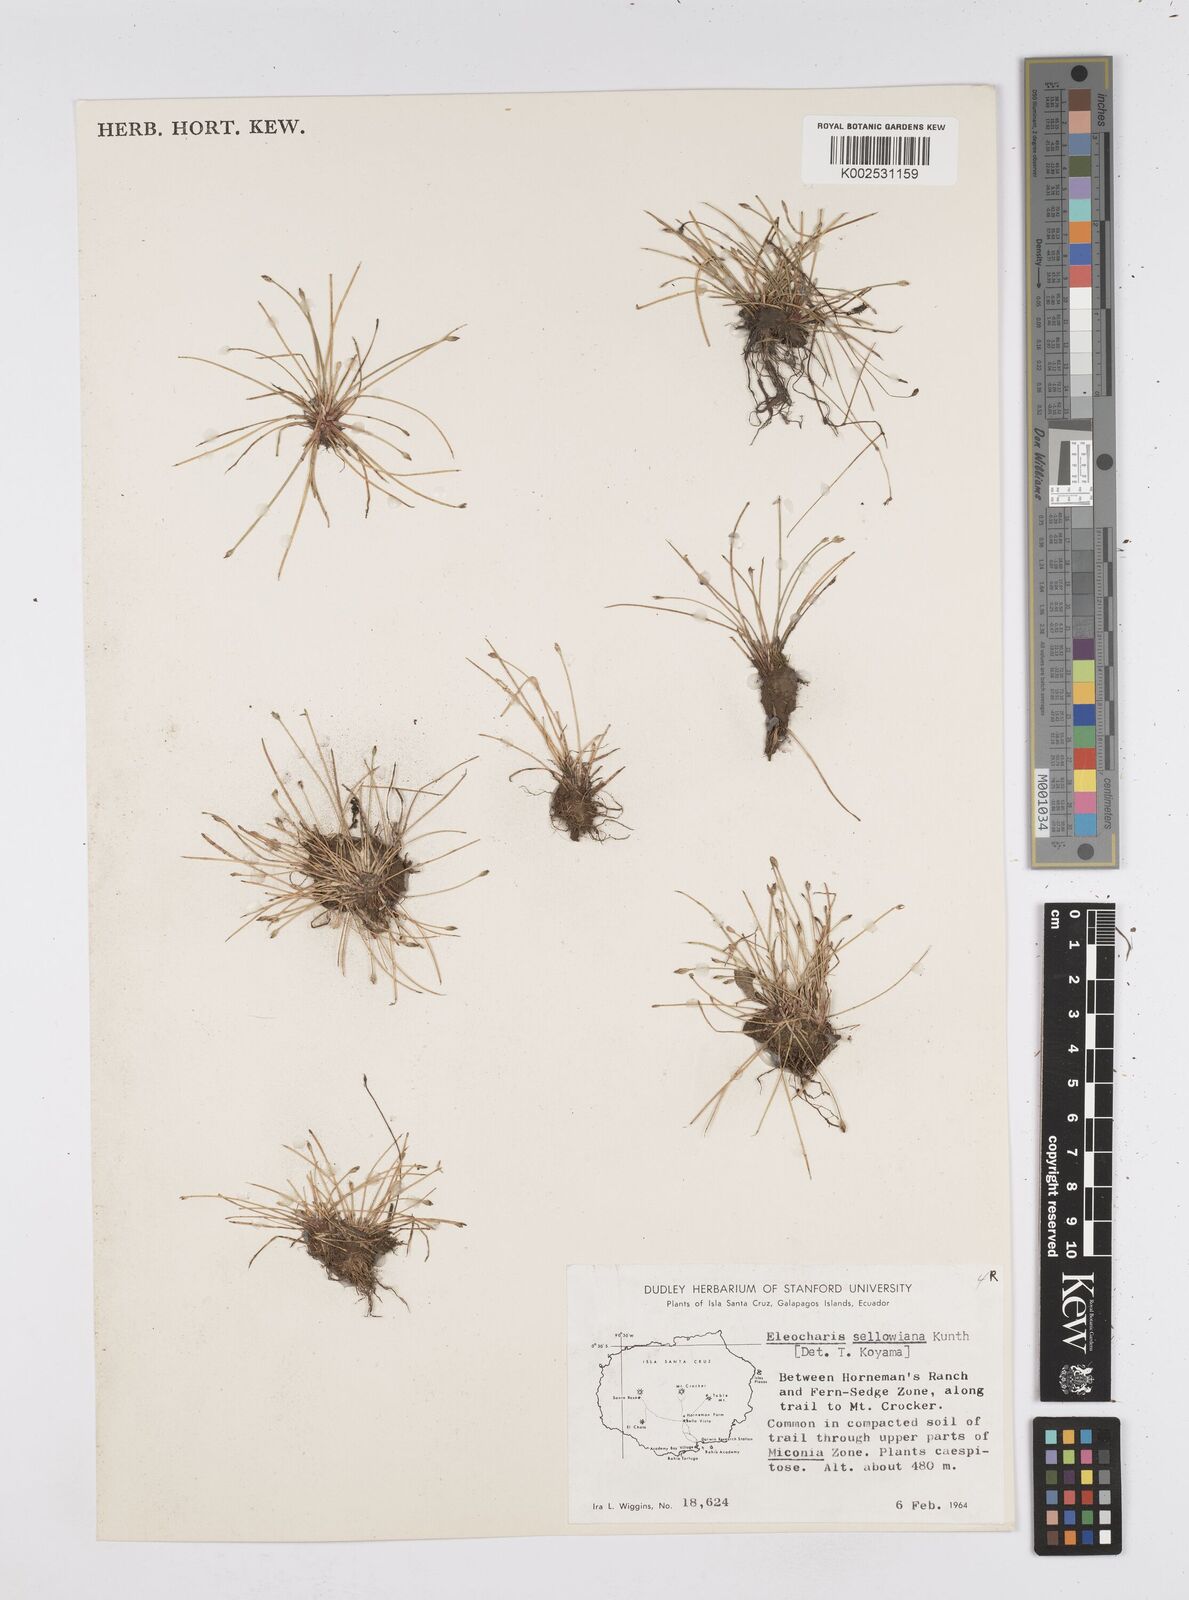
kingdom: Plantae
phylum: Tracheophyta
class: Liliopsida
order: Poales
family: Cyperaceae
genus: Eleocharis
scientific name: Eleocharis sellowiana
